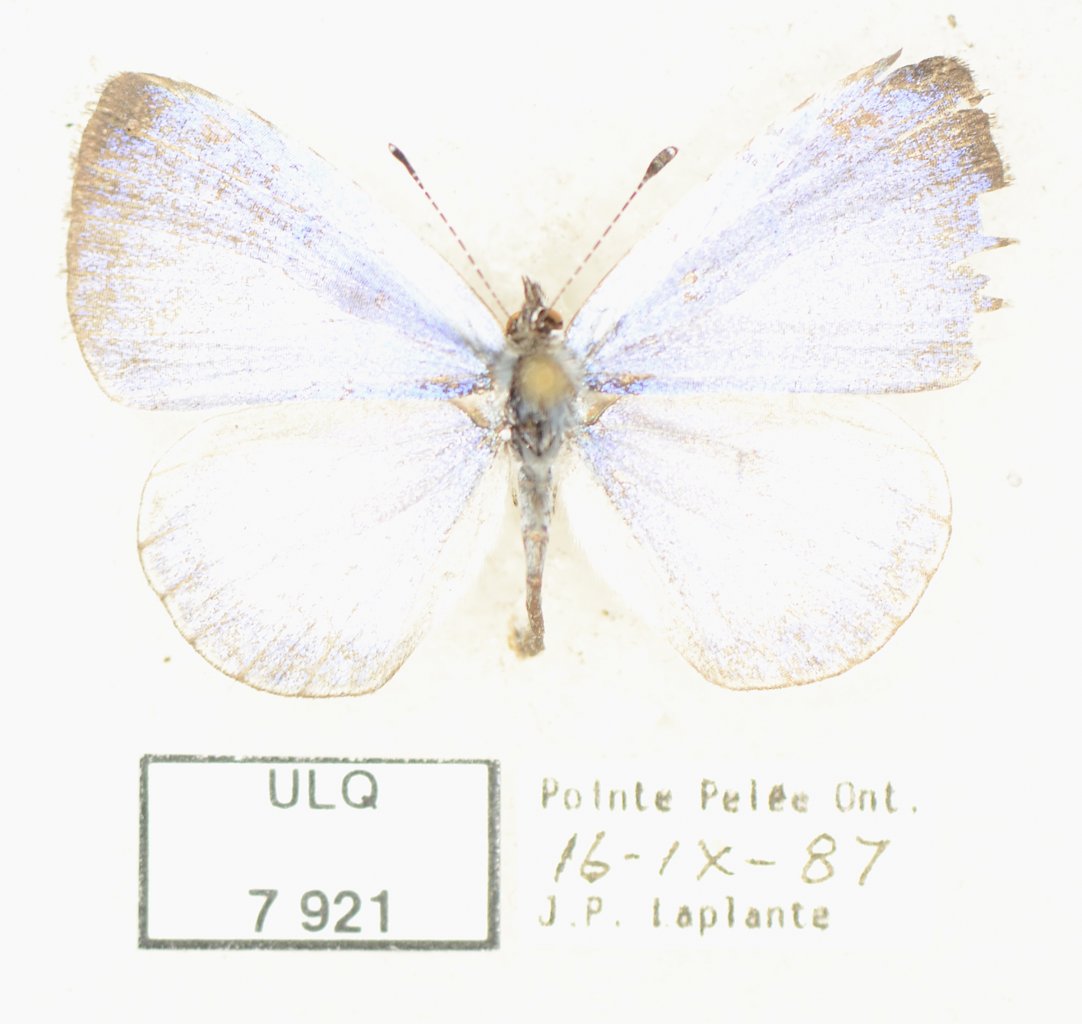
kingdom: Animalia
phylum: Arthropoda
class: Insecta
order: Lepidoptera
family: Lycaenidae
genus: Celastrina
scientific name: Celastrina
